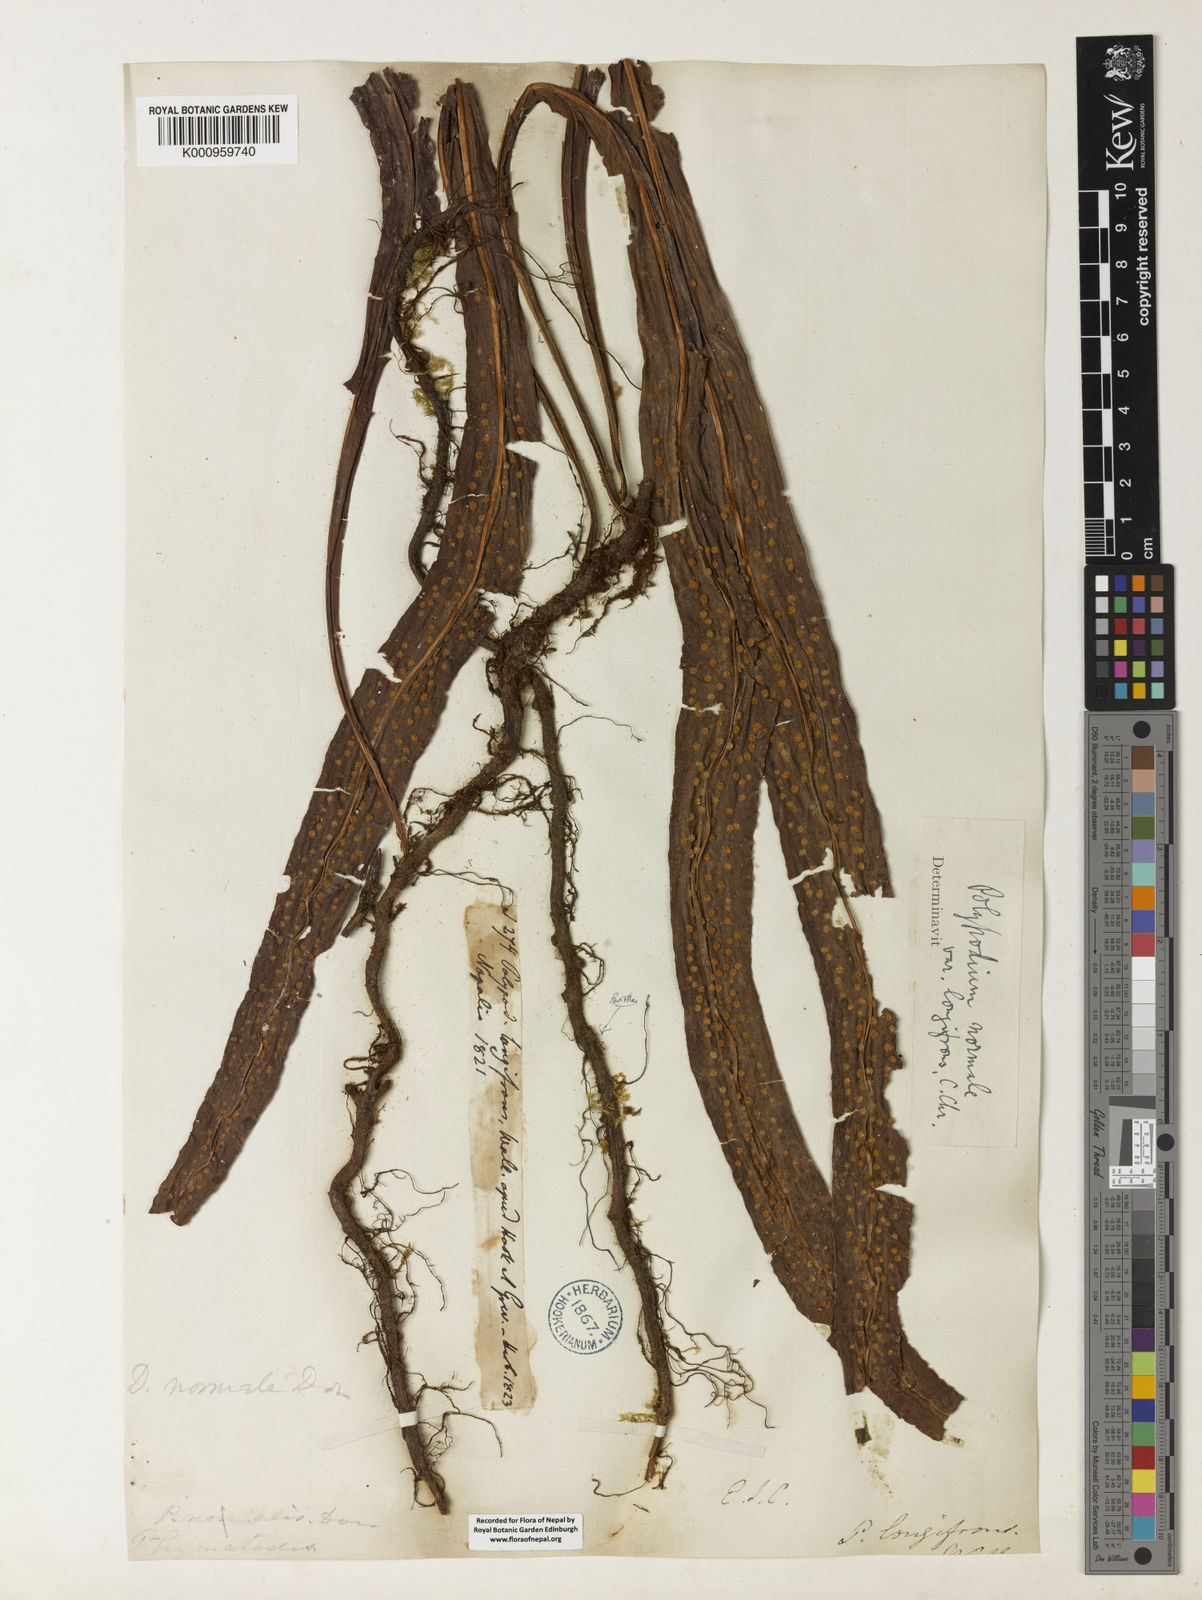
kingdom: Plantae
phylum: Tracheophyta
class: Polypodiopsida
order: Polypodiales
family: Polypodiaceae
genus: Lepisorus
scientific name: Lepisorus normalis
